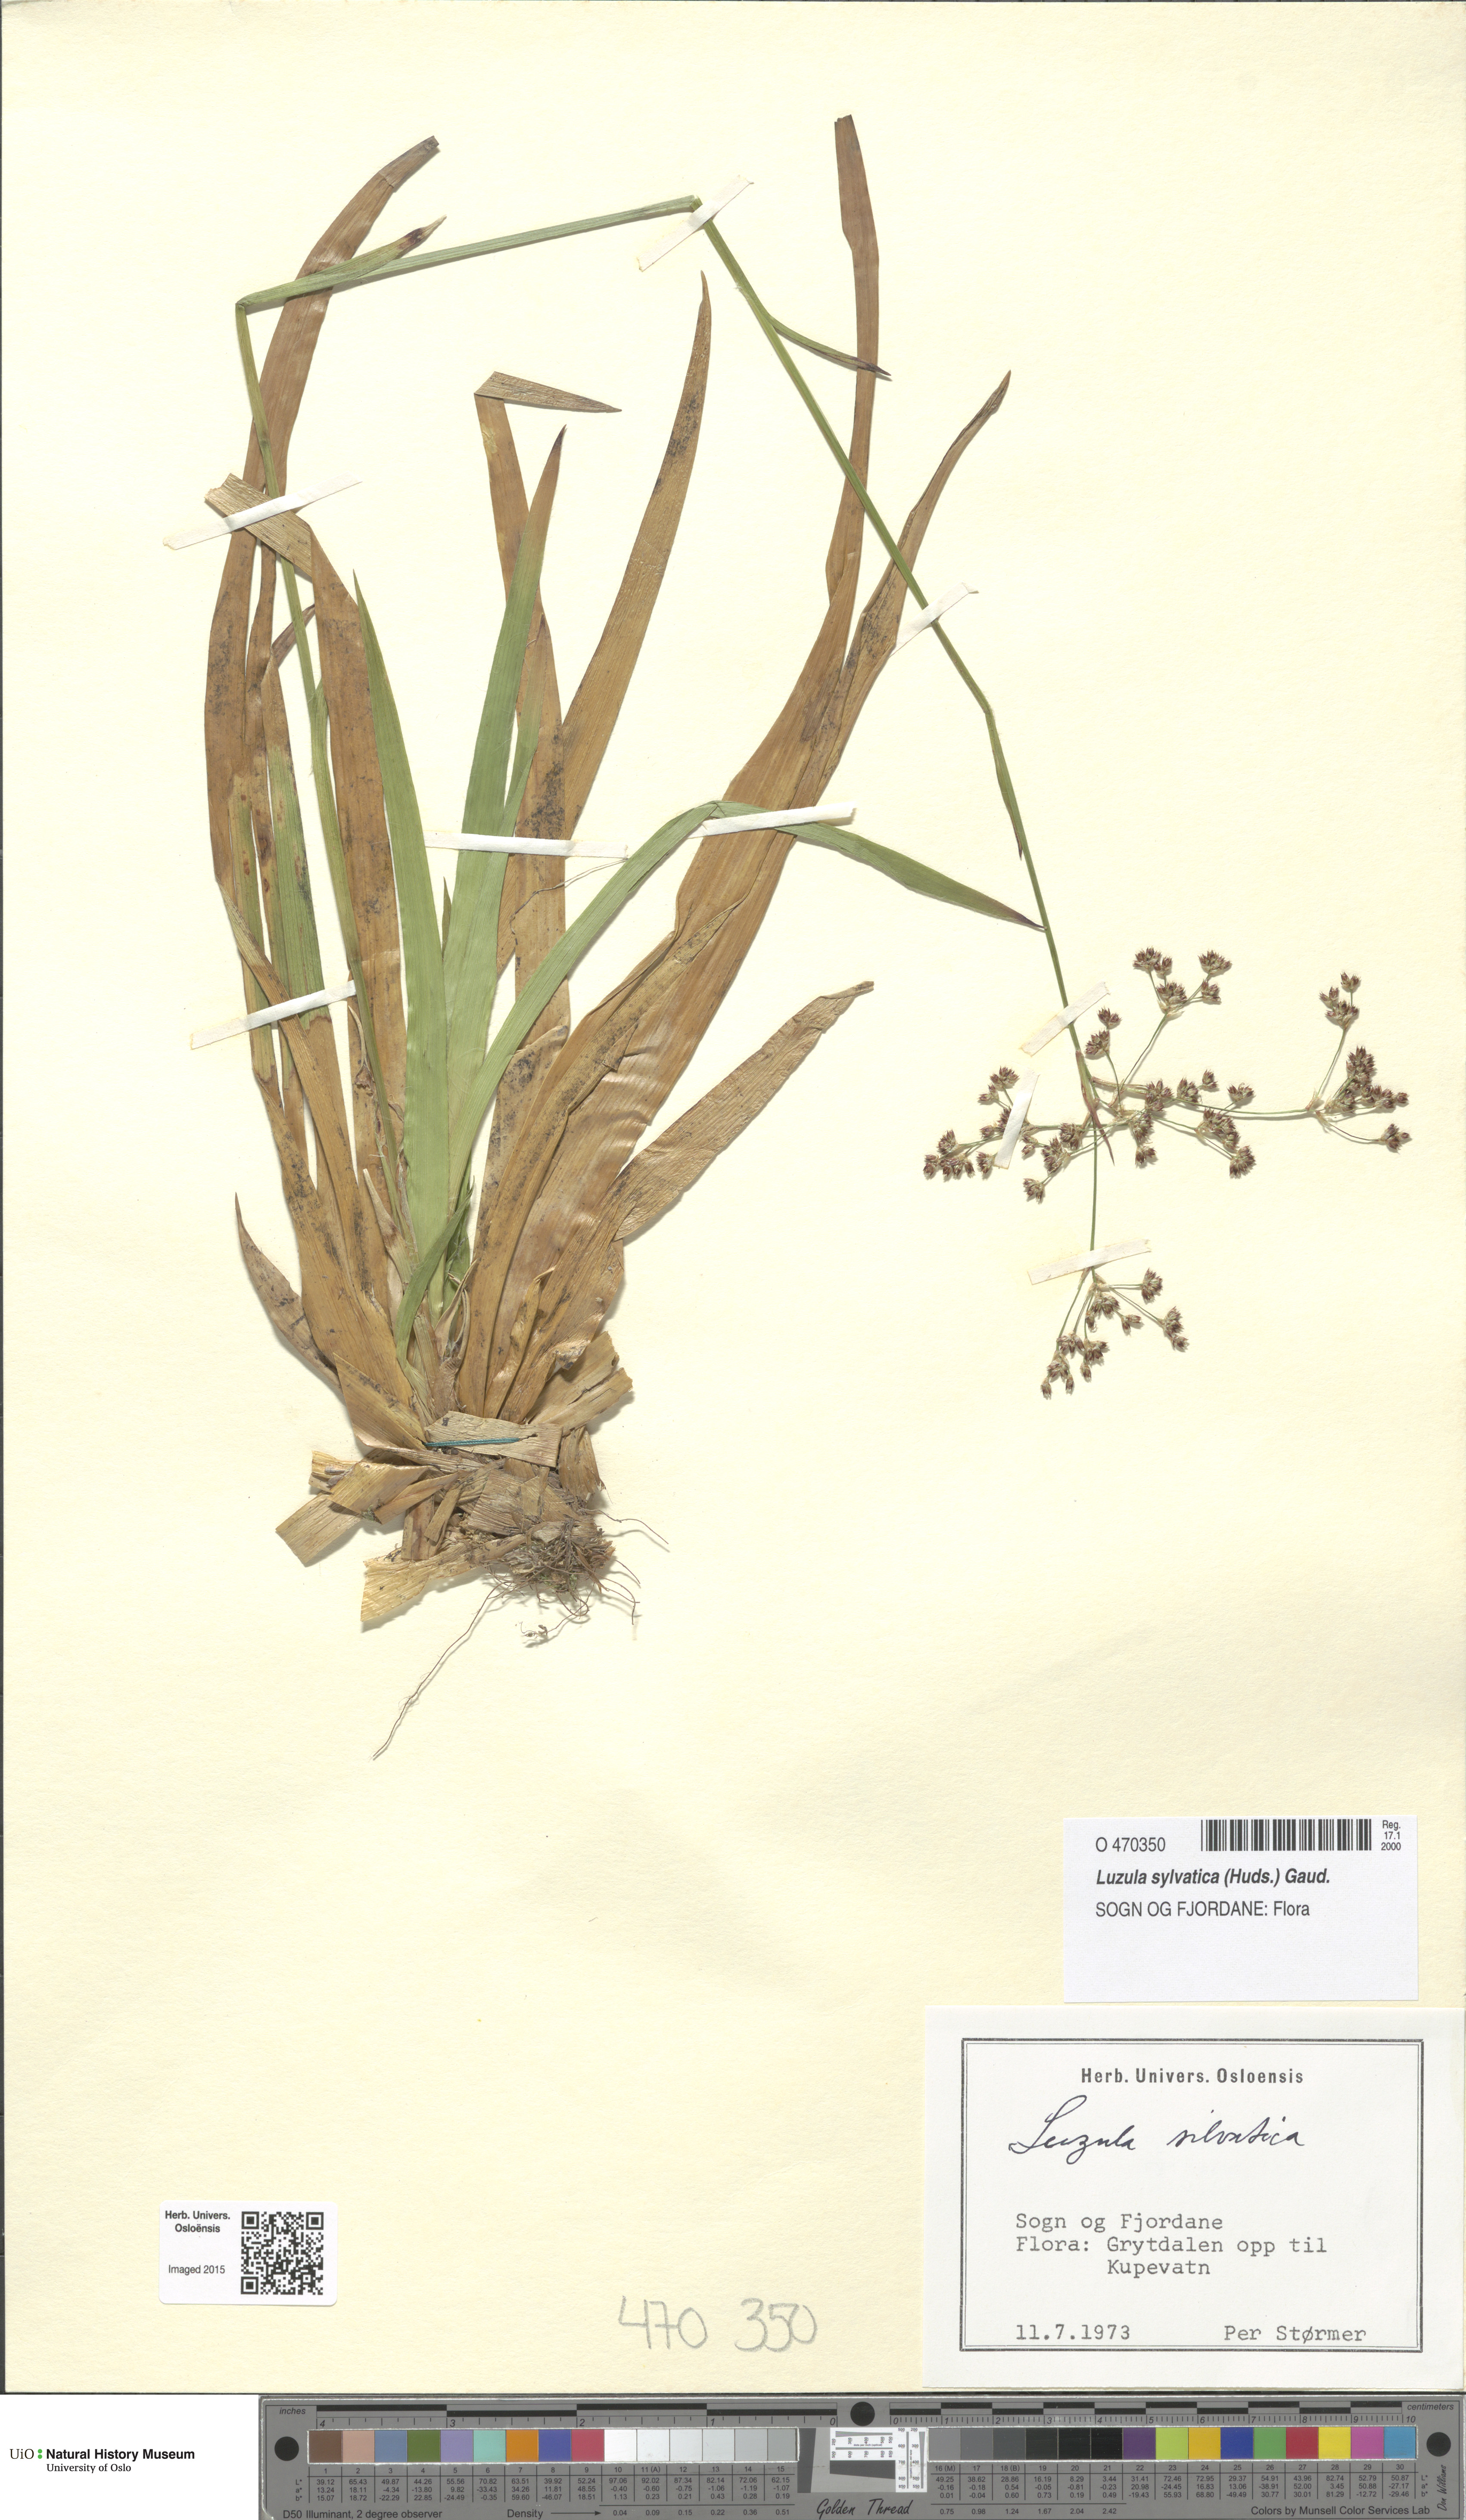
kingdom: Plantae
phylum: Tracheophyta
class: Liliopsida
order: Poales
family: Juncaceae
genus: Luzula
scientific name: Luzula sylvatica
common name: Great wood-rush
